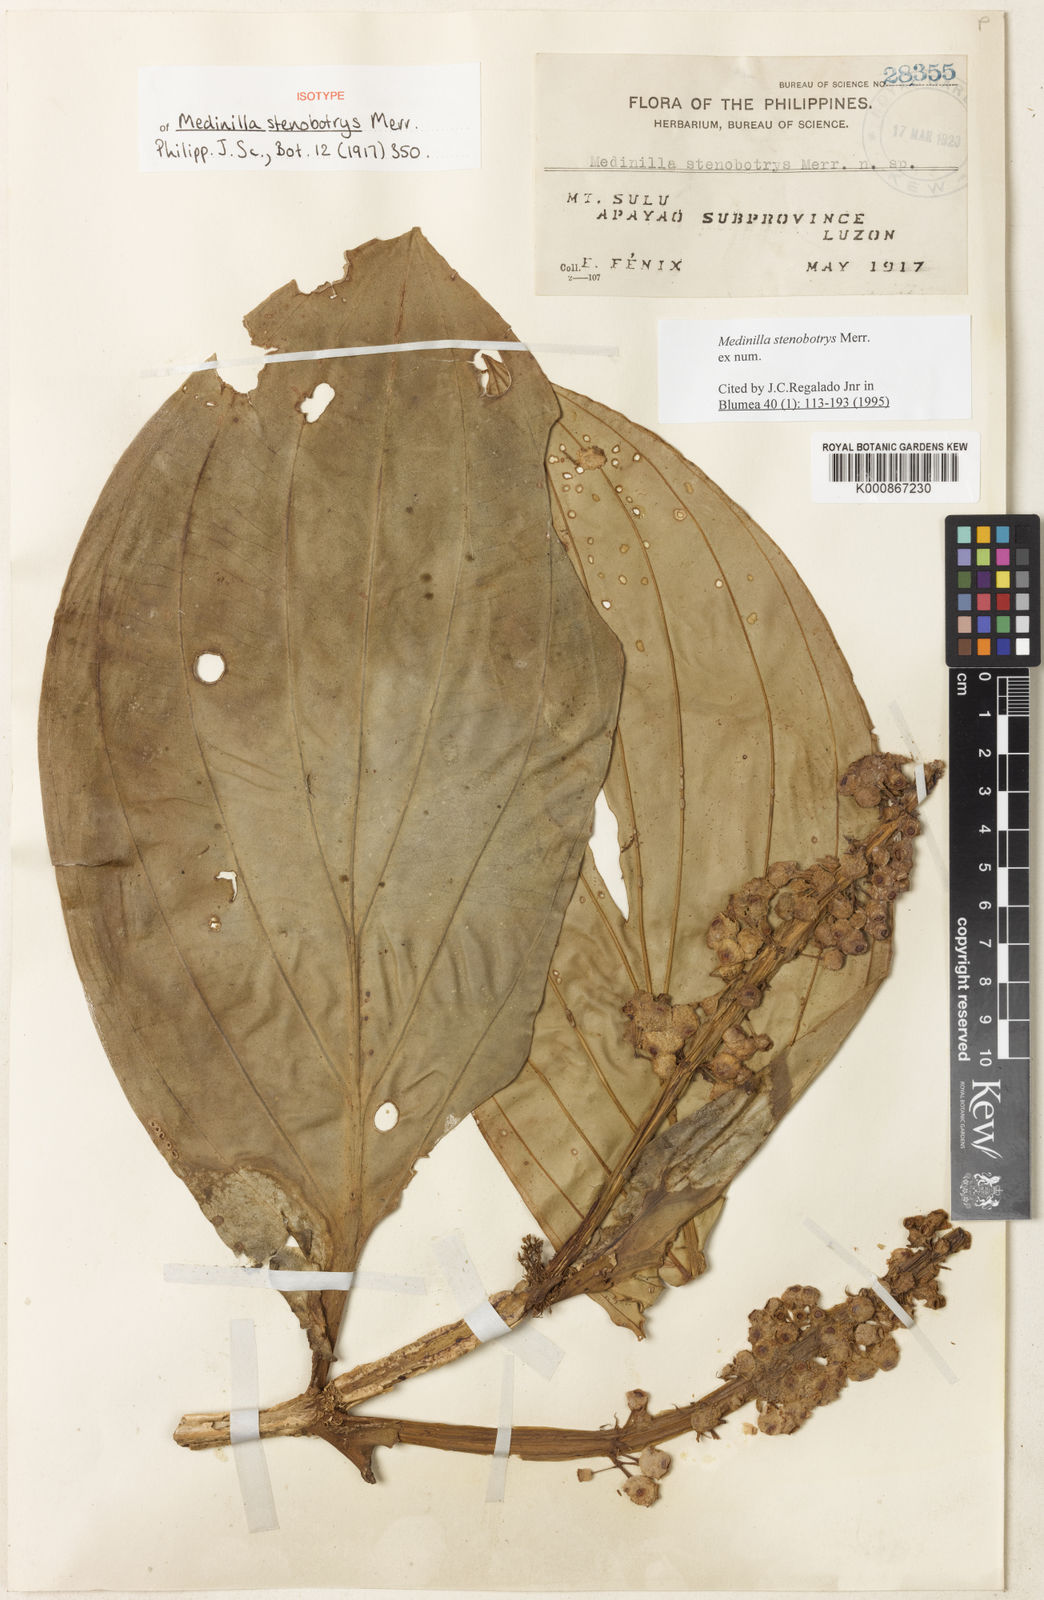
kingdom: Plantae
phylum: Tracheophyta
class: Magnoliopsida
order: Myrtales
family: Melastomataceae
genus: Medinilla
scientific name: Medinilla stenobotrys
